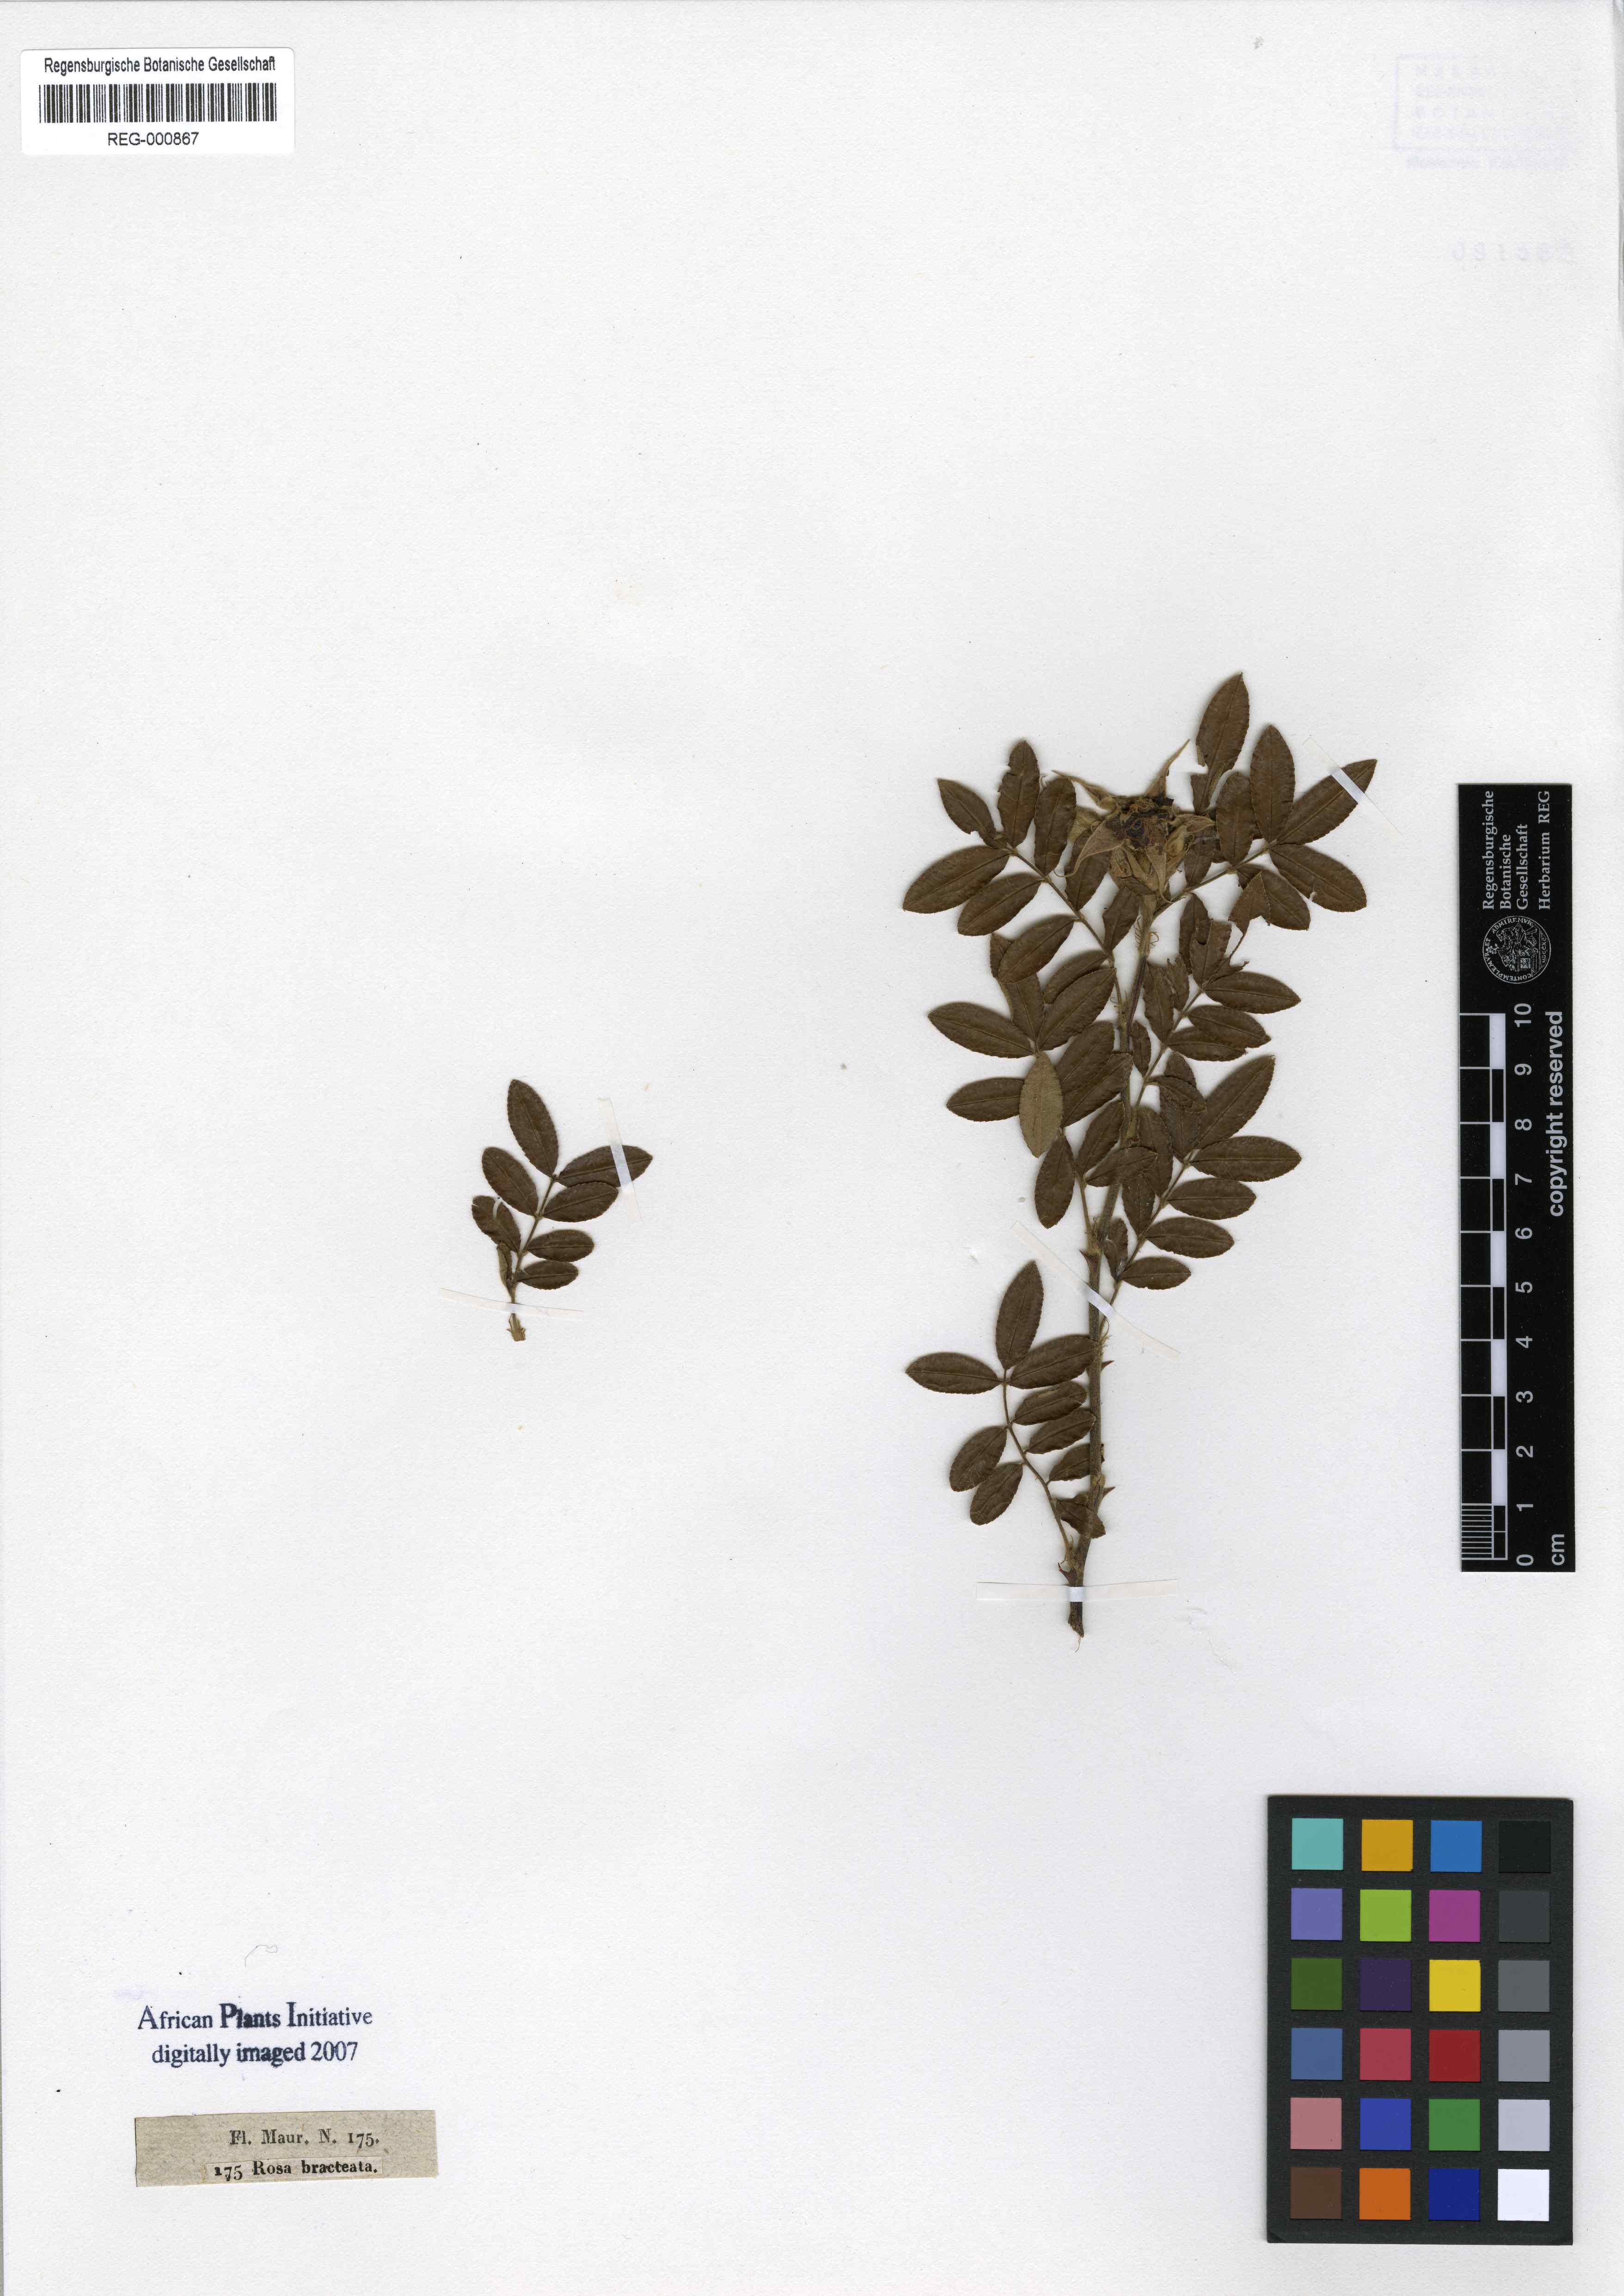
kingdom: Plantae
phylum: Tracheophyta
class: Magnoliopsida
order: Rosales
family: Rosaceae
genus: Rosa
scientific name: Rosa bracteata
